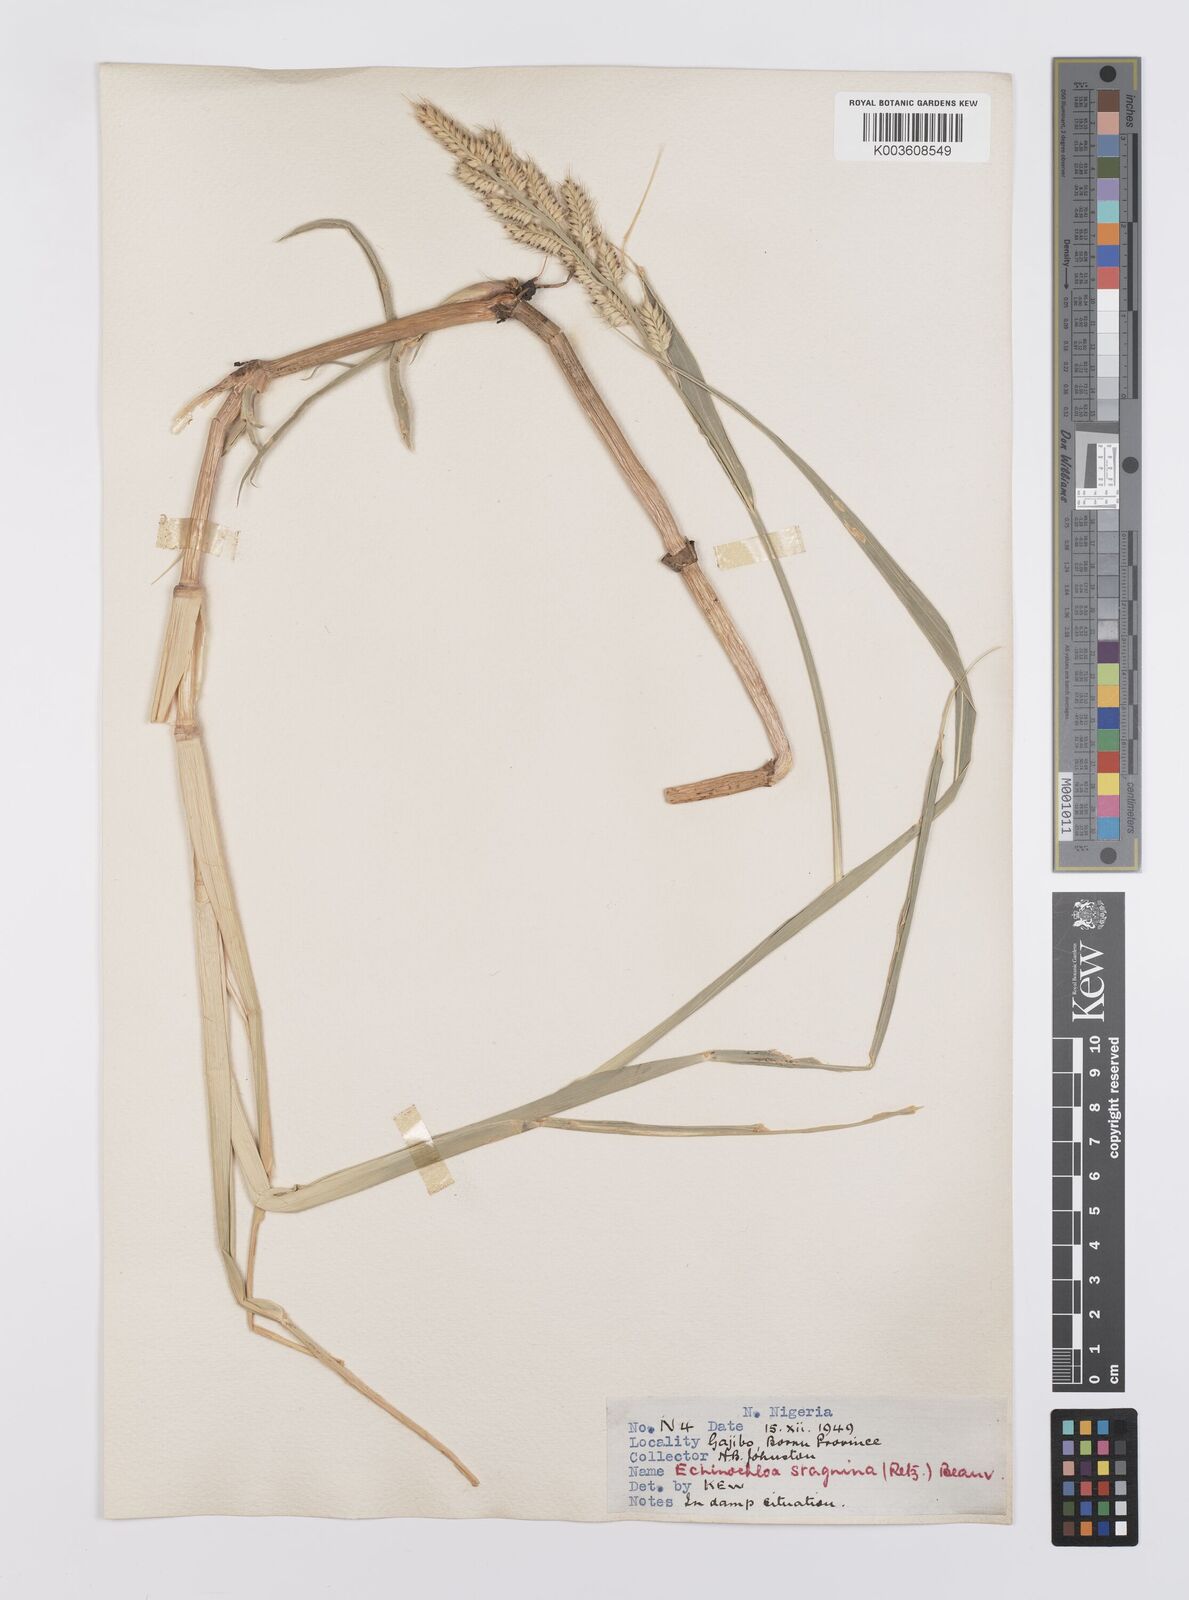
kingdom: Plantae
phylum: Tracheophyta
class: Liliopsida
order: Poales
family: Poaceae
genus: Echinochloa
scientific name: Echinochloa stagnina
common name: Burgu grass
